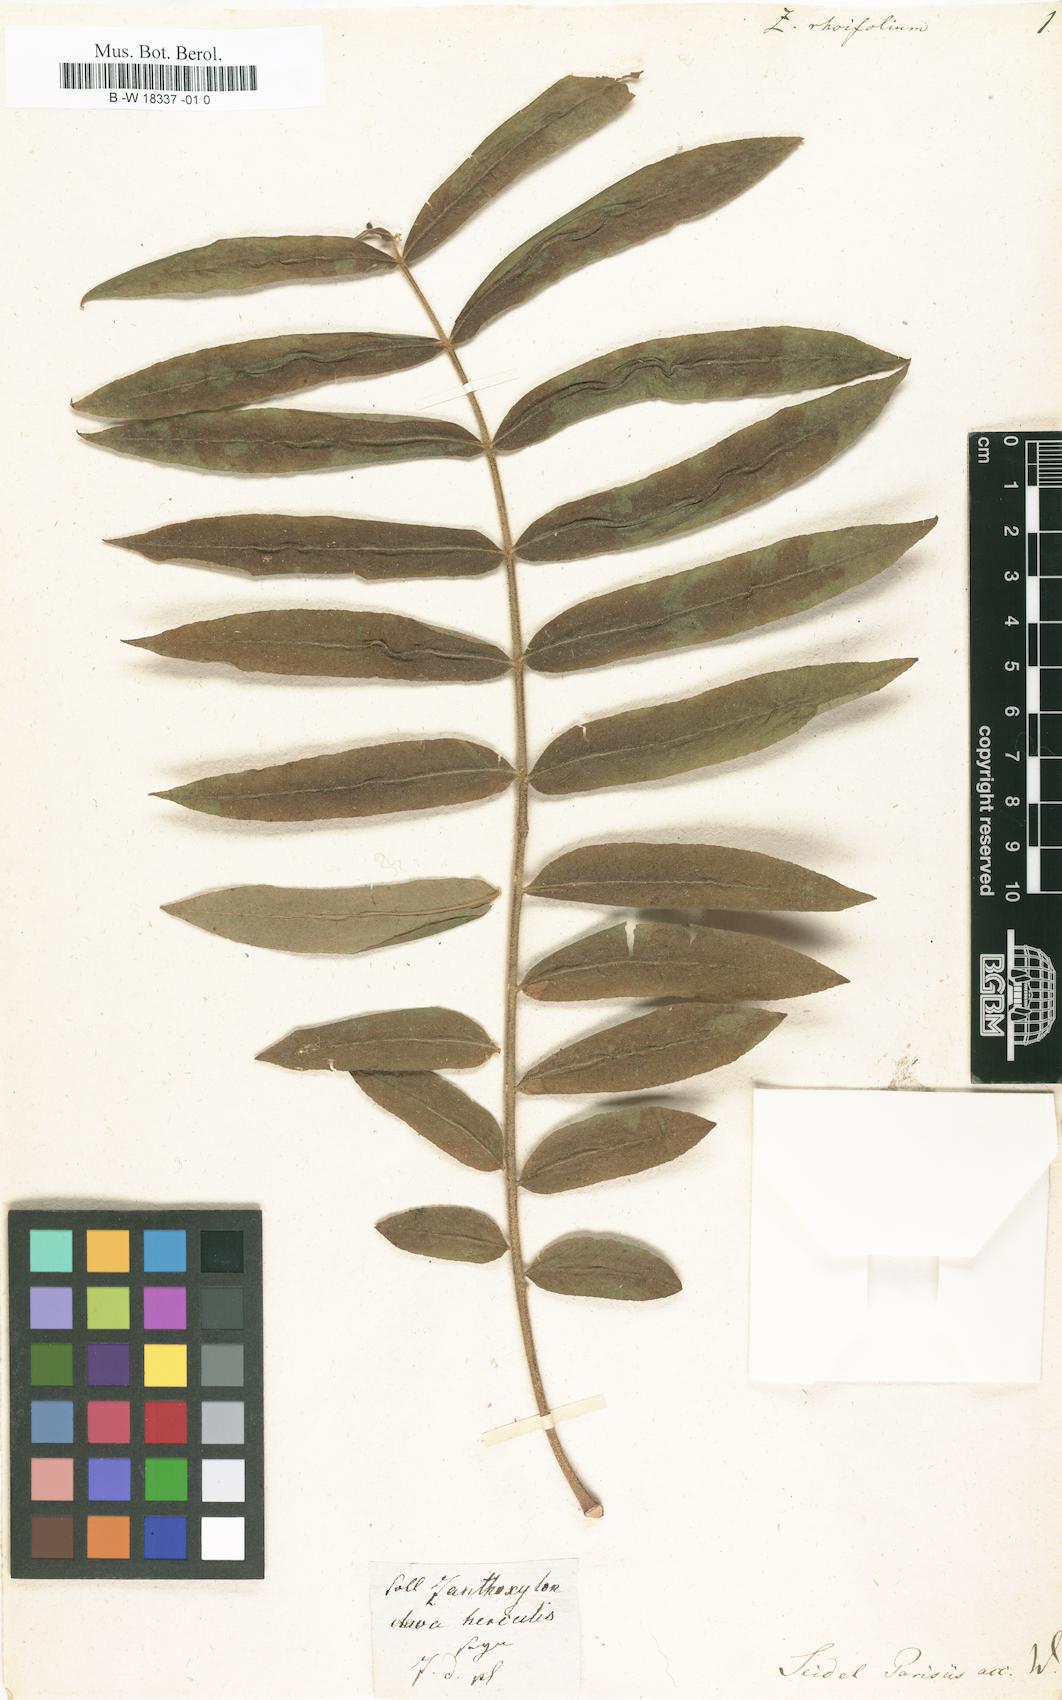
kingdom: Plantae
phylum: Tracheophyta
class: Magnoliopsida
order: Sapindales
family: Rutaceae
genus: Zanthoxylum
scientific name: Zanthoxylum rhoifolium
